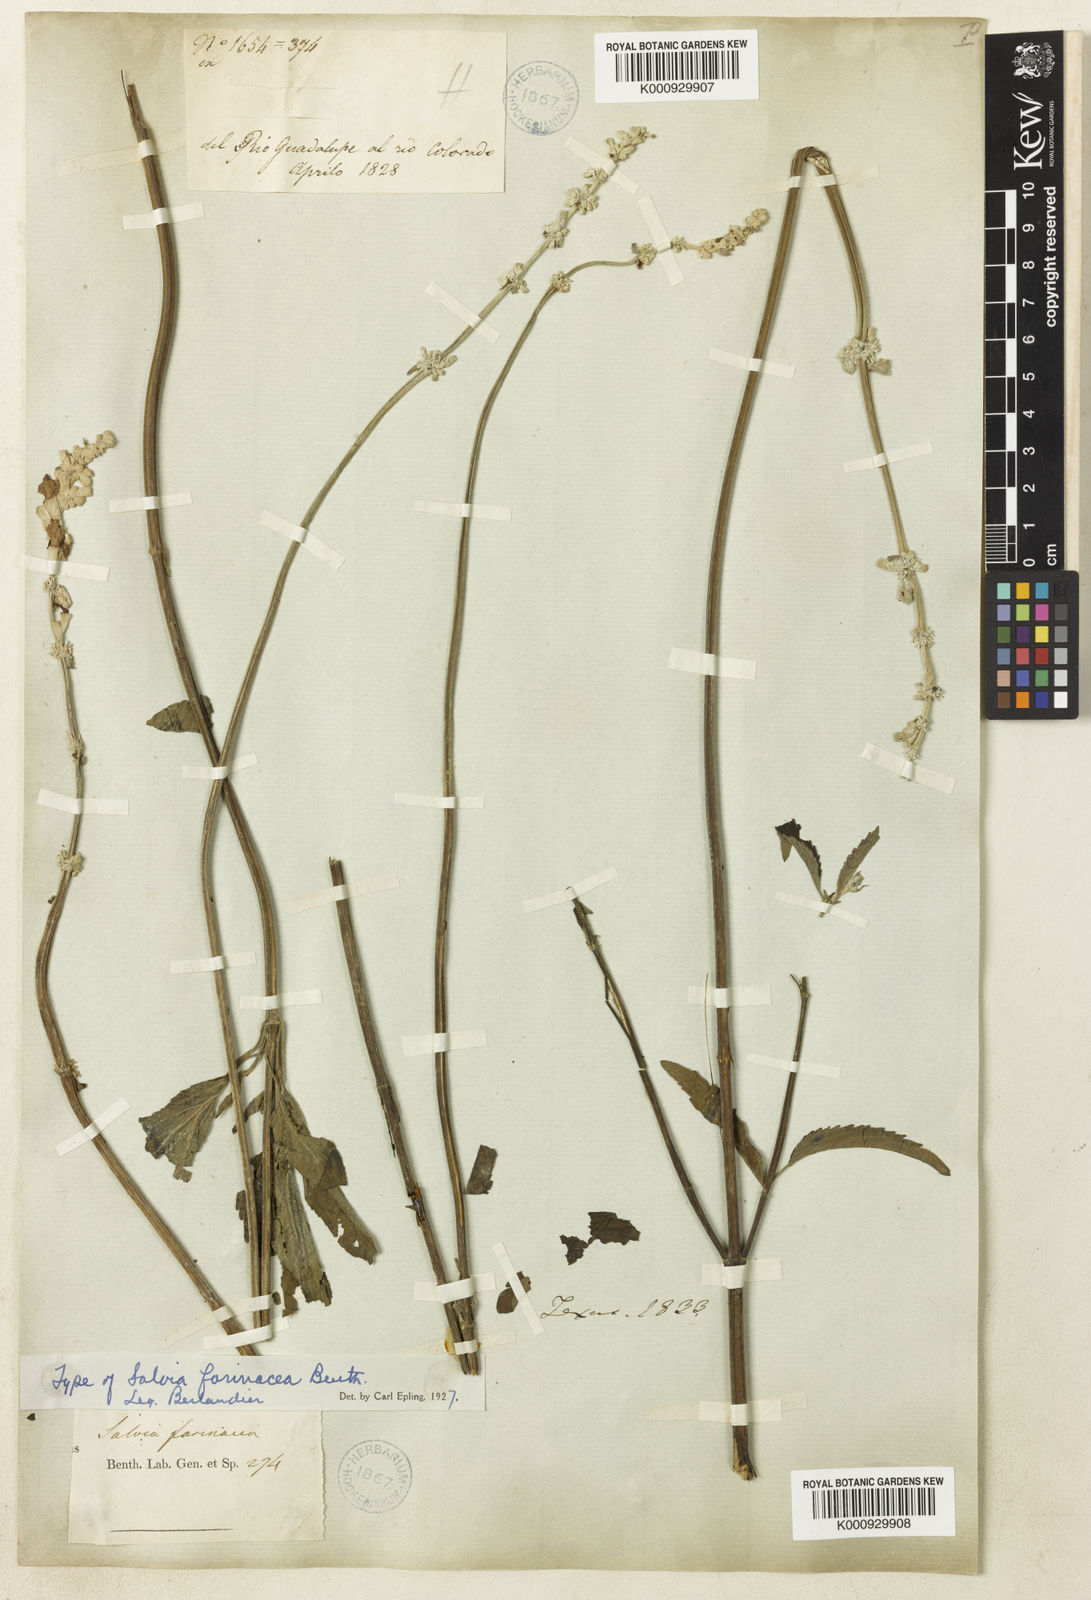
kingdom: Plantae
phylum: Tracheophyta
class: Magnoliopsida
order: Lamiales
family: Lamiaceae
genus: Salvia
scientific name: Salvia farinacea
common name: Mealy sage
